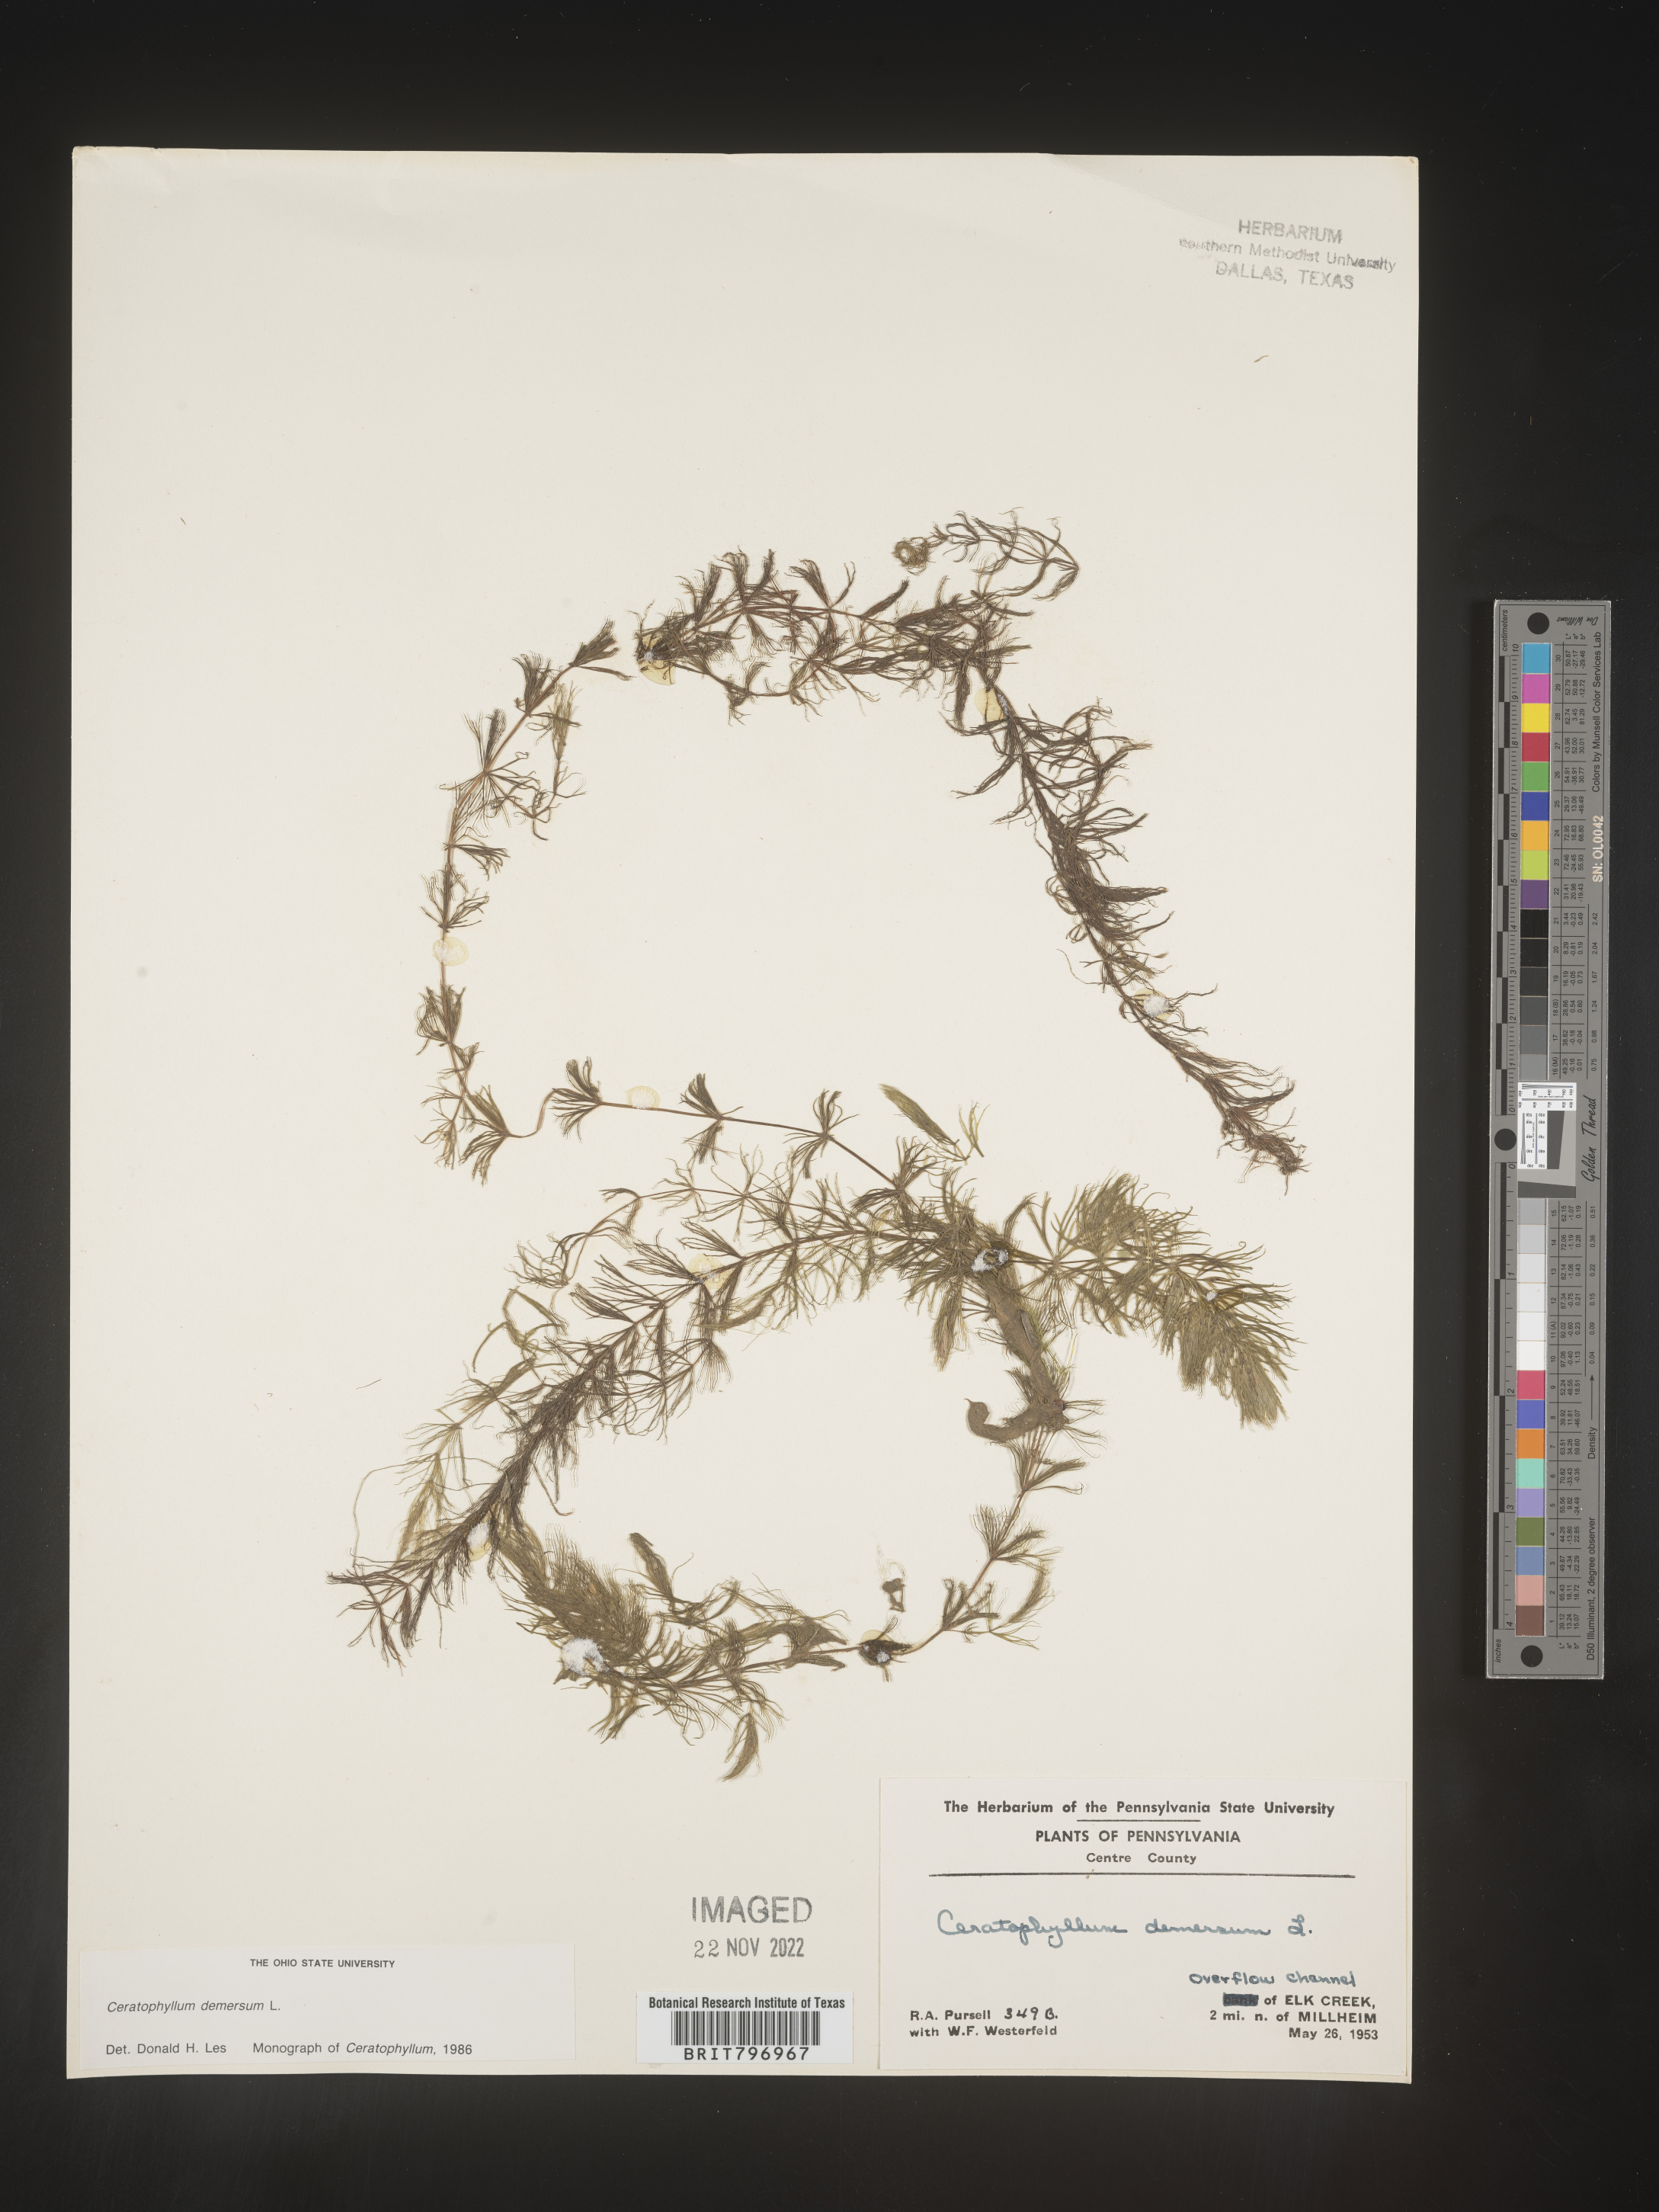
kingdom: Plantae
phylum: Tracheophyta
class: Magnoliopsida
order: Ceratophyllales
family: Ceratophyllaceae
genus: Ceratophyllum
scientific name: Ceratophyllum demersum
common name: Rigid hornwort
